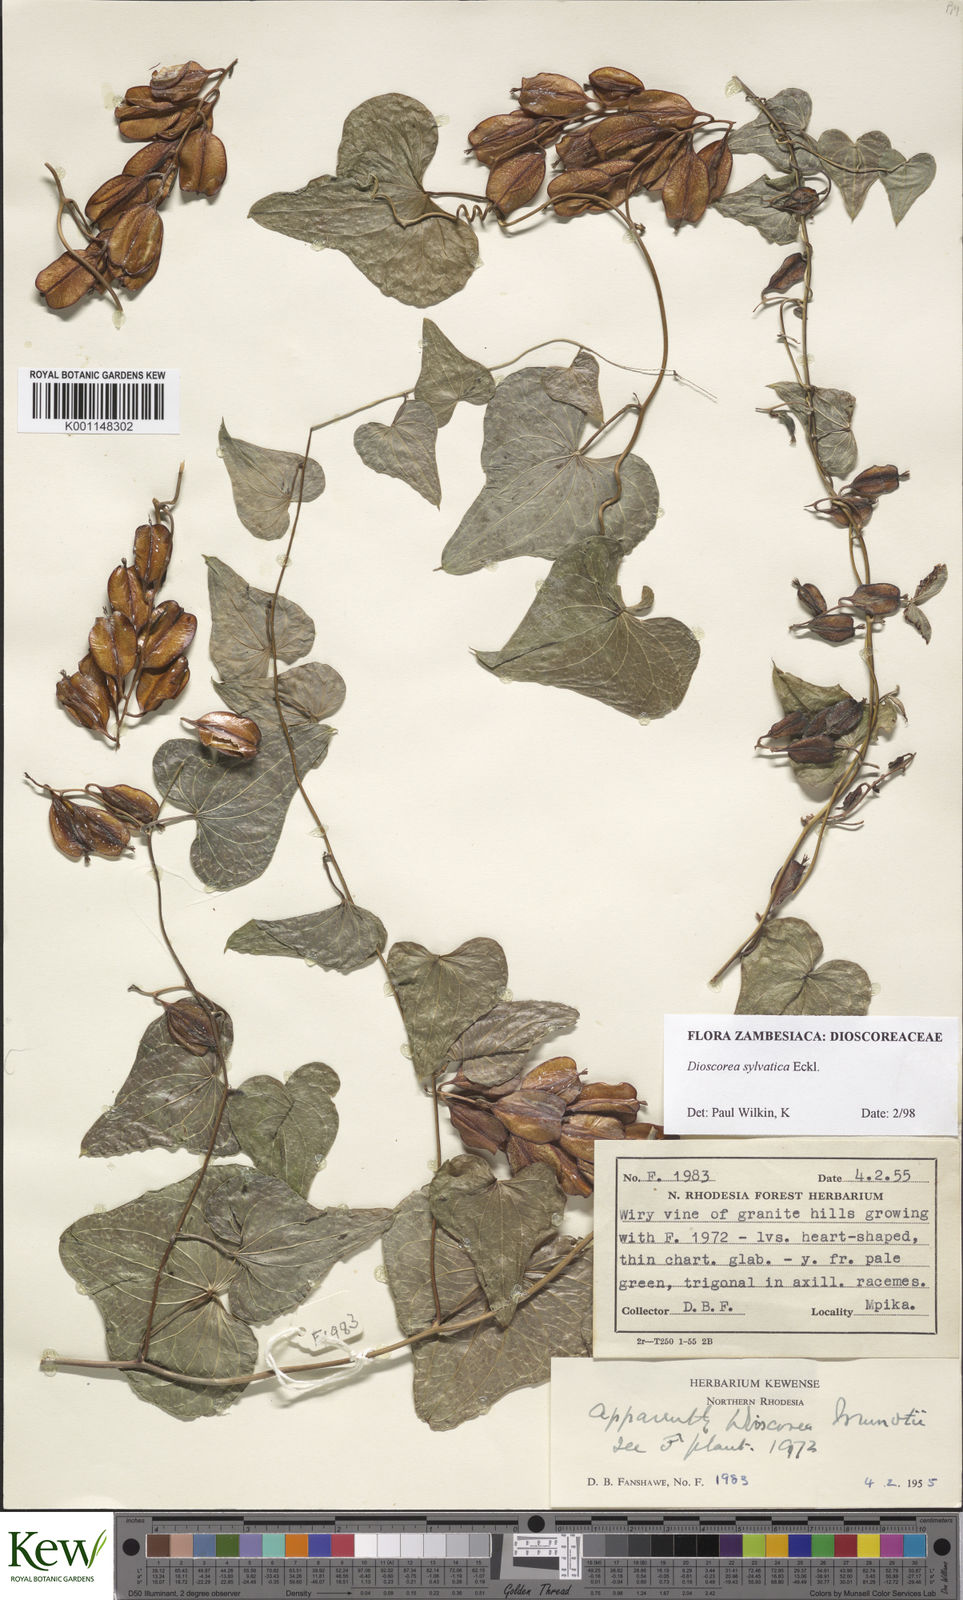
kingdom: Plantae
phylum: Tracheophyta
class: Liliopsida
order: Dioscoreales
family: Dioscoreaceae
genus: Dioscorea
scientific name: Dioscorea sylvatica
